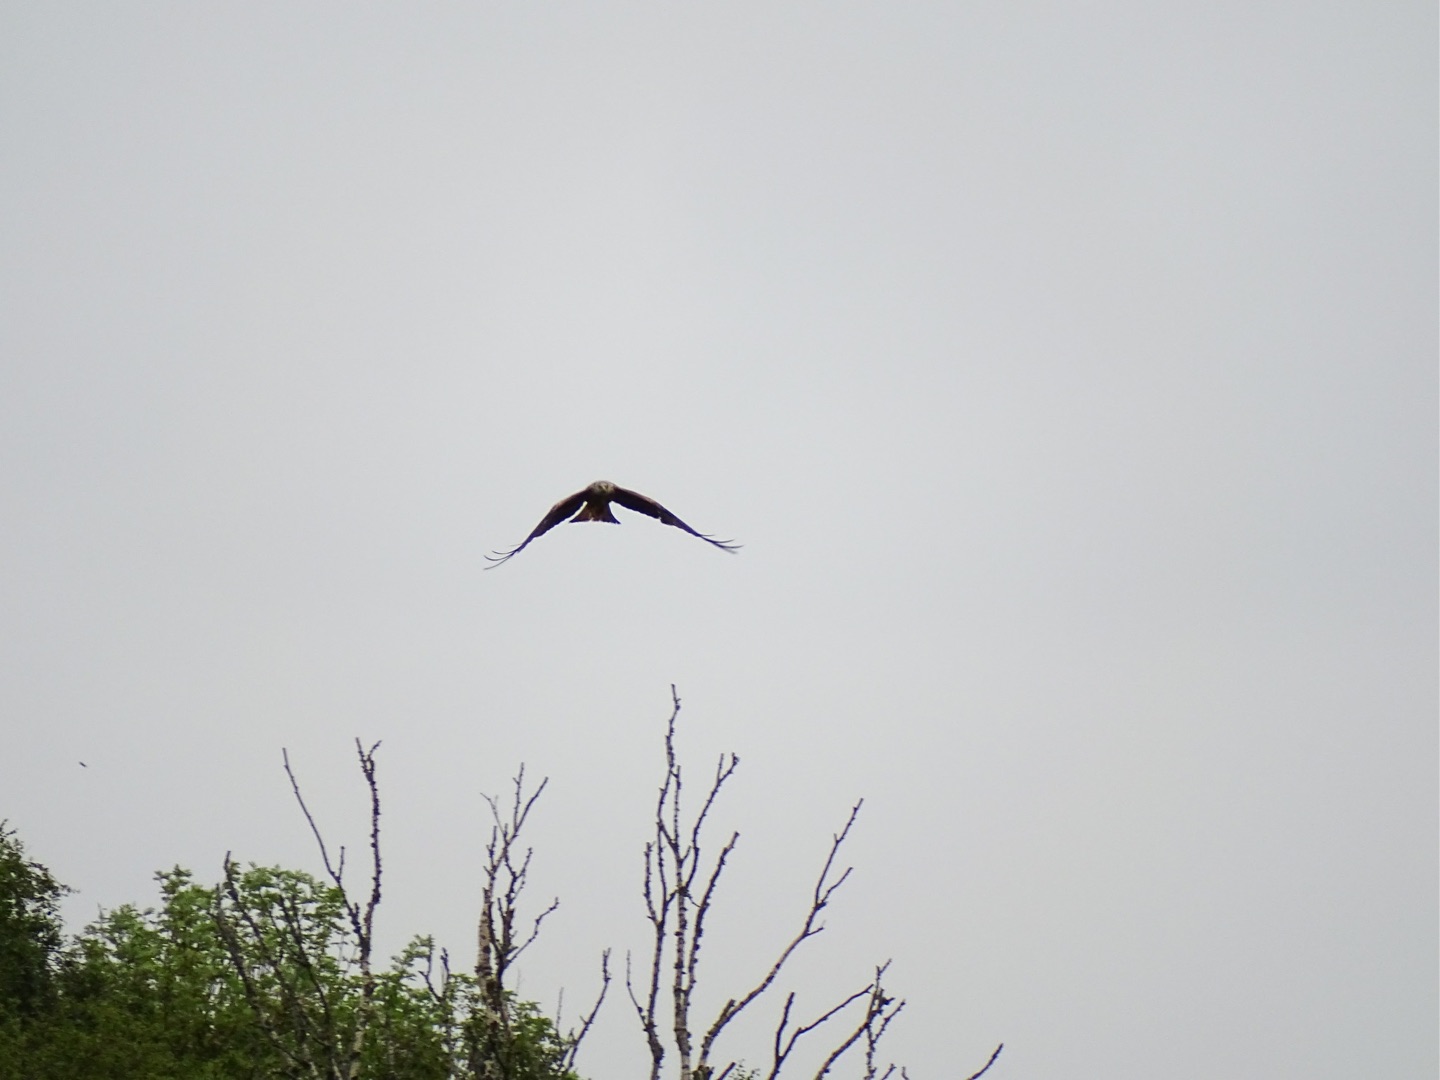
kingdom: Animalia
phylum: Chordata
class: Aves
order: Accipitriformes
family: Accipitridae
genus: Circus
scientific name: Circus aeruginosus
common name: Rørhøg
